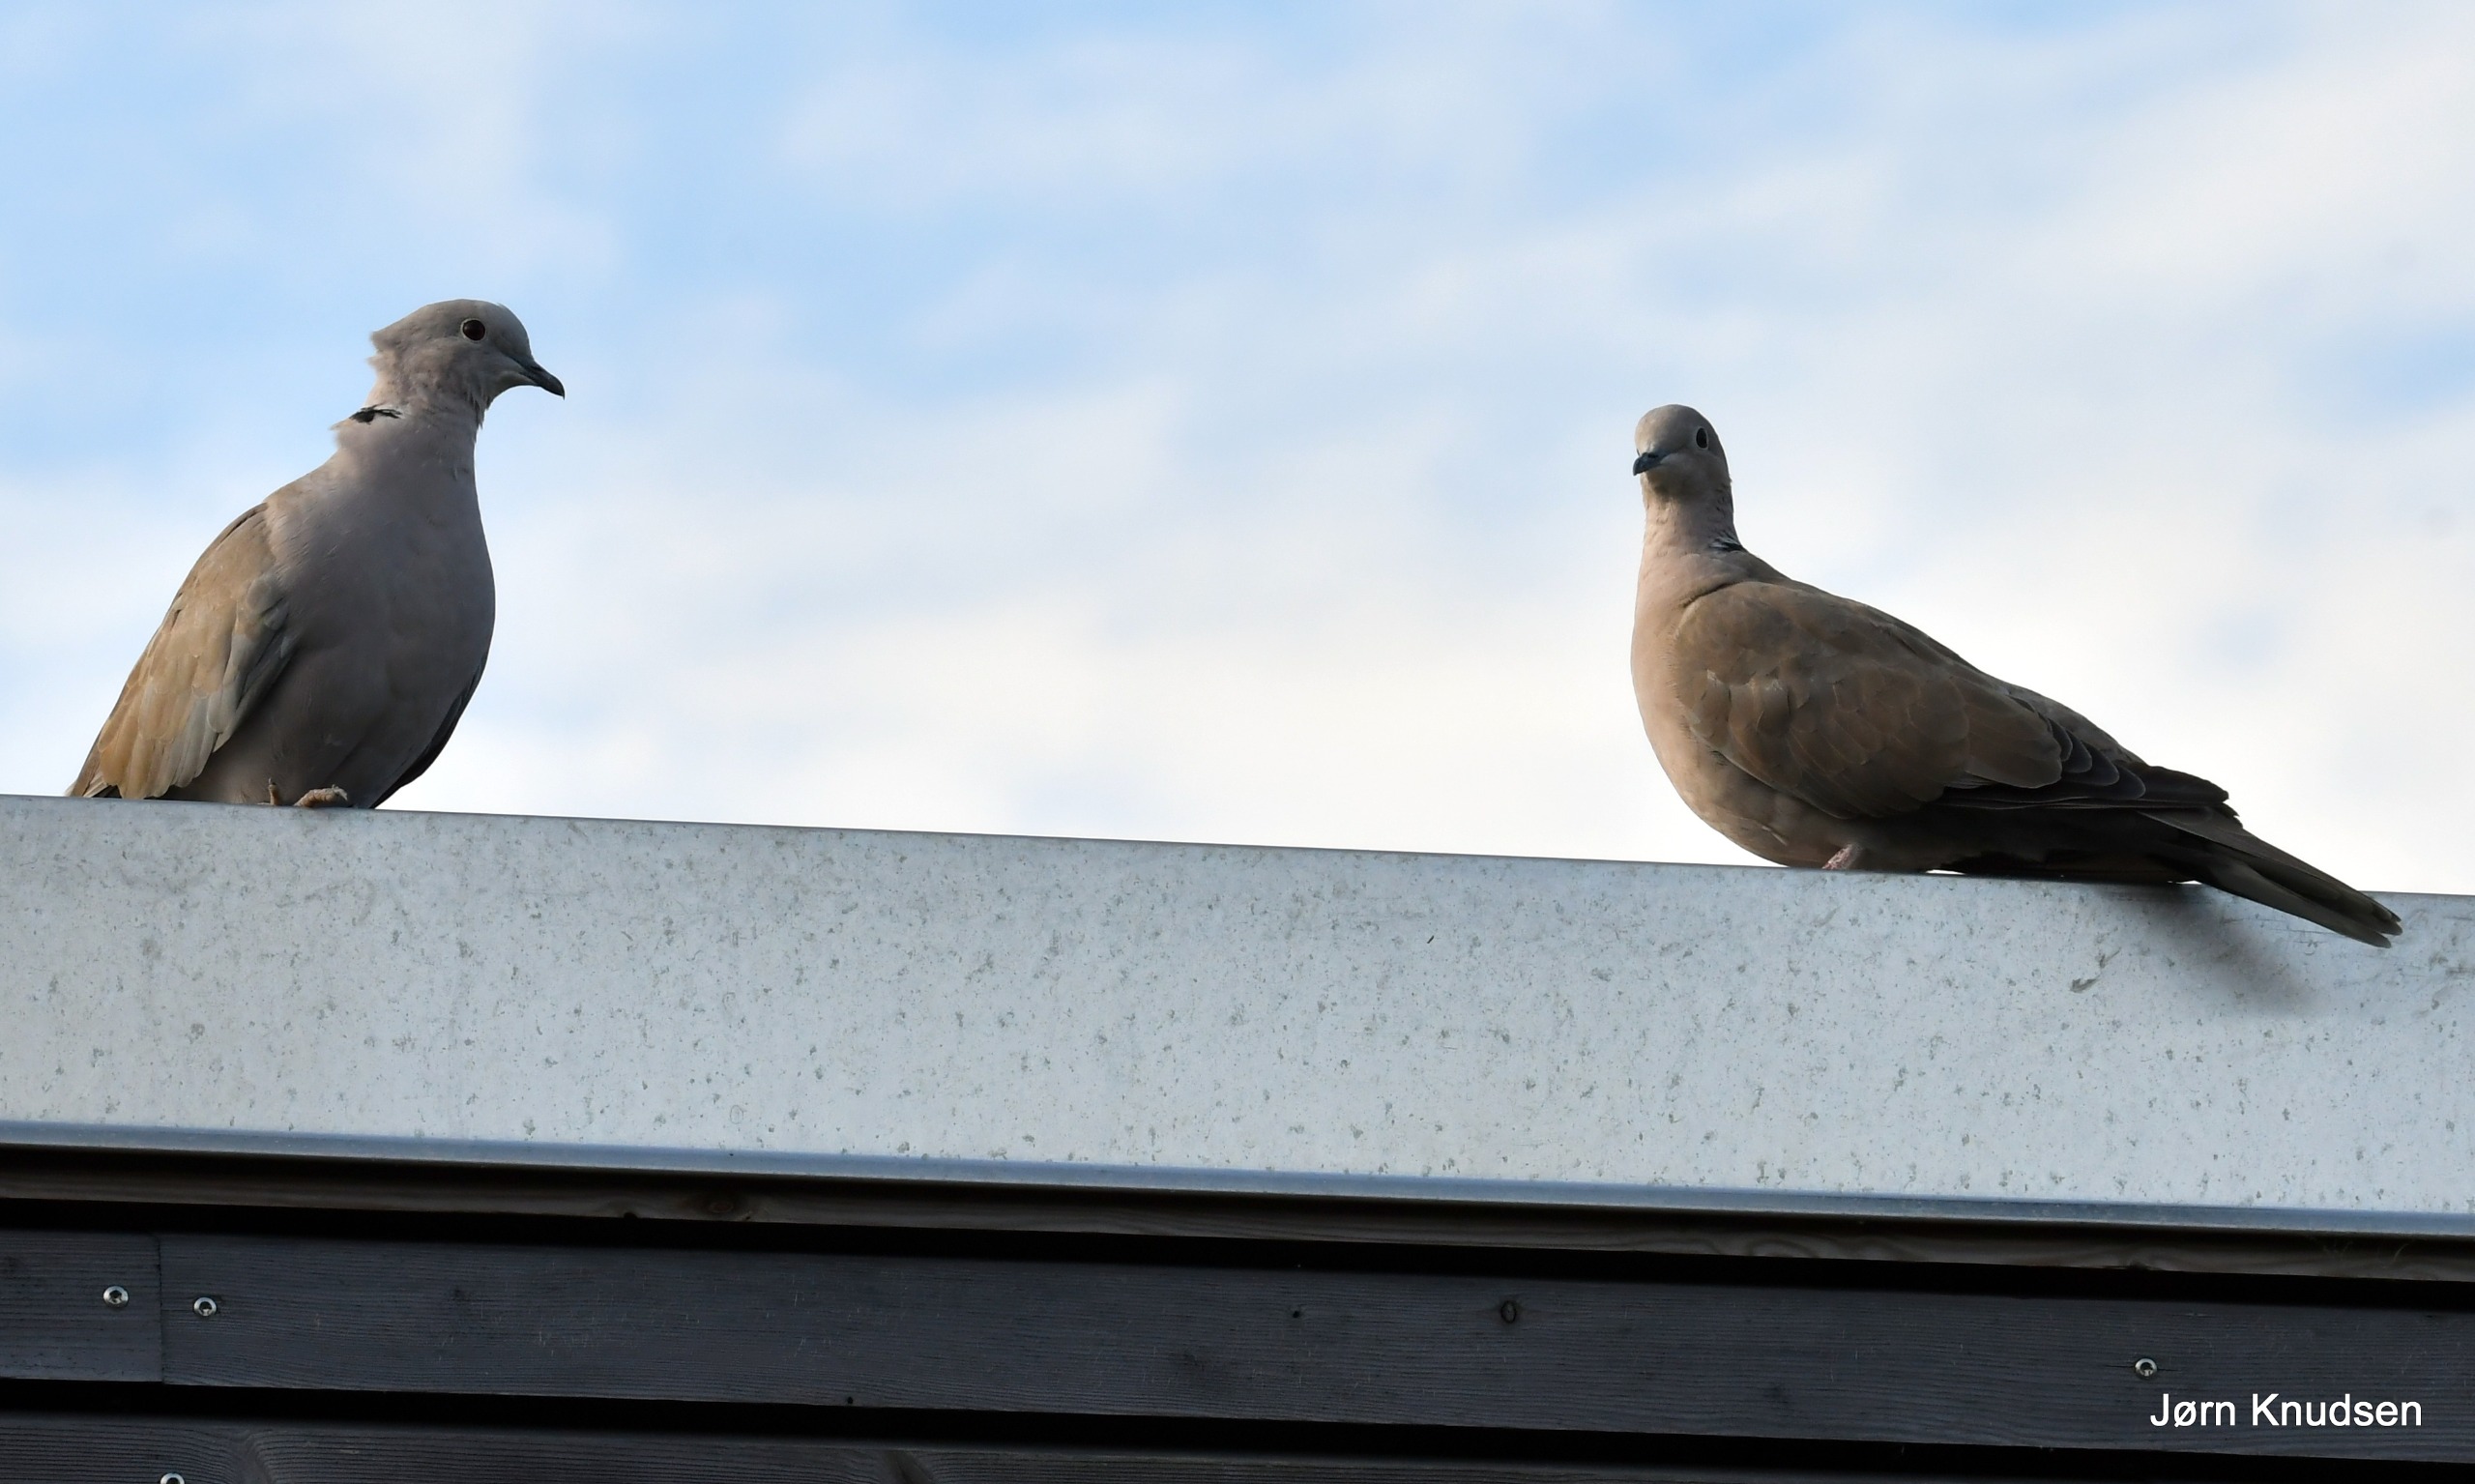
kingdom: Animalia
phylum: Chordata
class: Aves
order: Columbiformes
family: Columbidae
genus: Streptopelia
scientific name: Streptopelia decaocto
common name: Tyrkerdue
